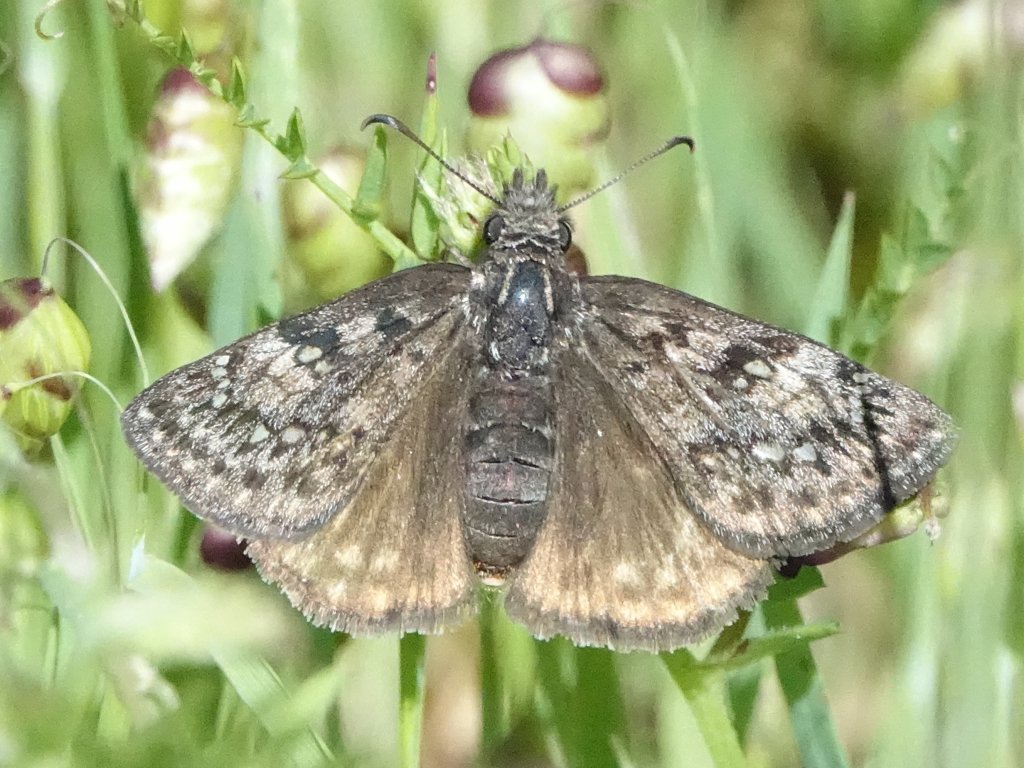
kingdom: Animalia
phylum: Arthropoda
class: Insecta
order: Lepidoptera
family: Hesperiidae
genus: Erynnis
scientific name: Erynnis propertius
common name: Propertius Duskywing
